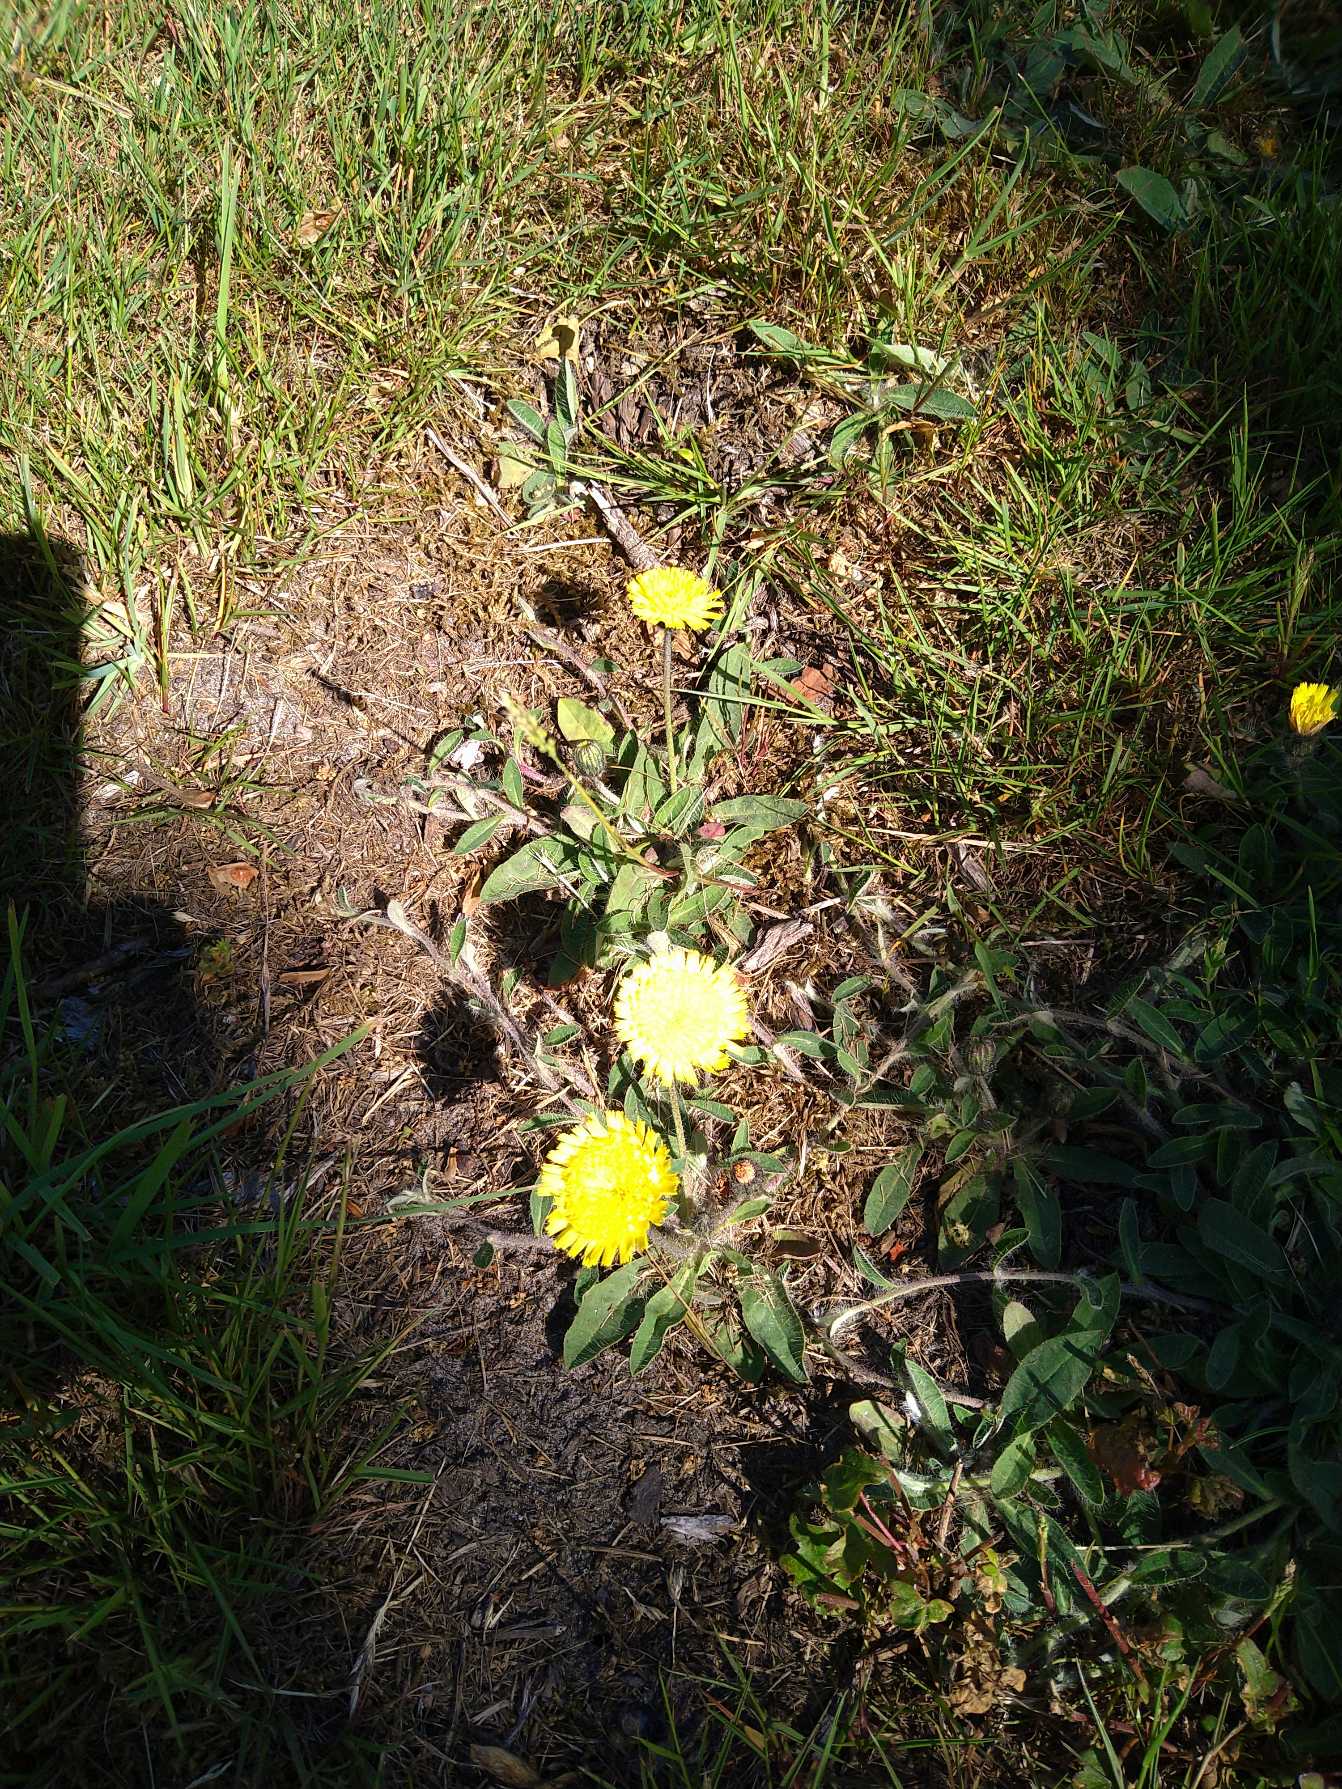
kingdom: Plantae
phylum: Tracheophyta
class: Magnoliopsida
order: Fabales
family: Fabaceae
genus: Lotus
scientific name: Lotus corniculatus
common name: Almindelig kællingetand
